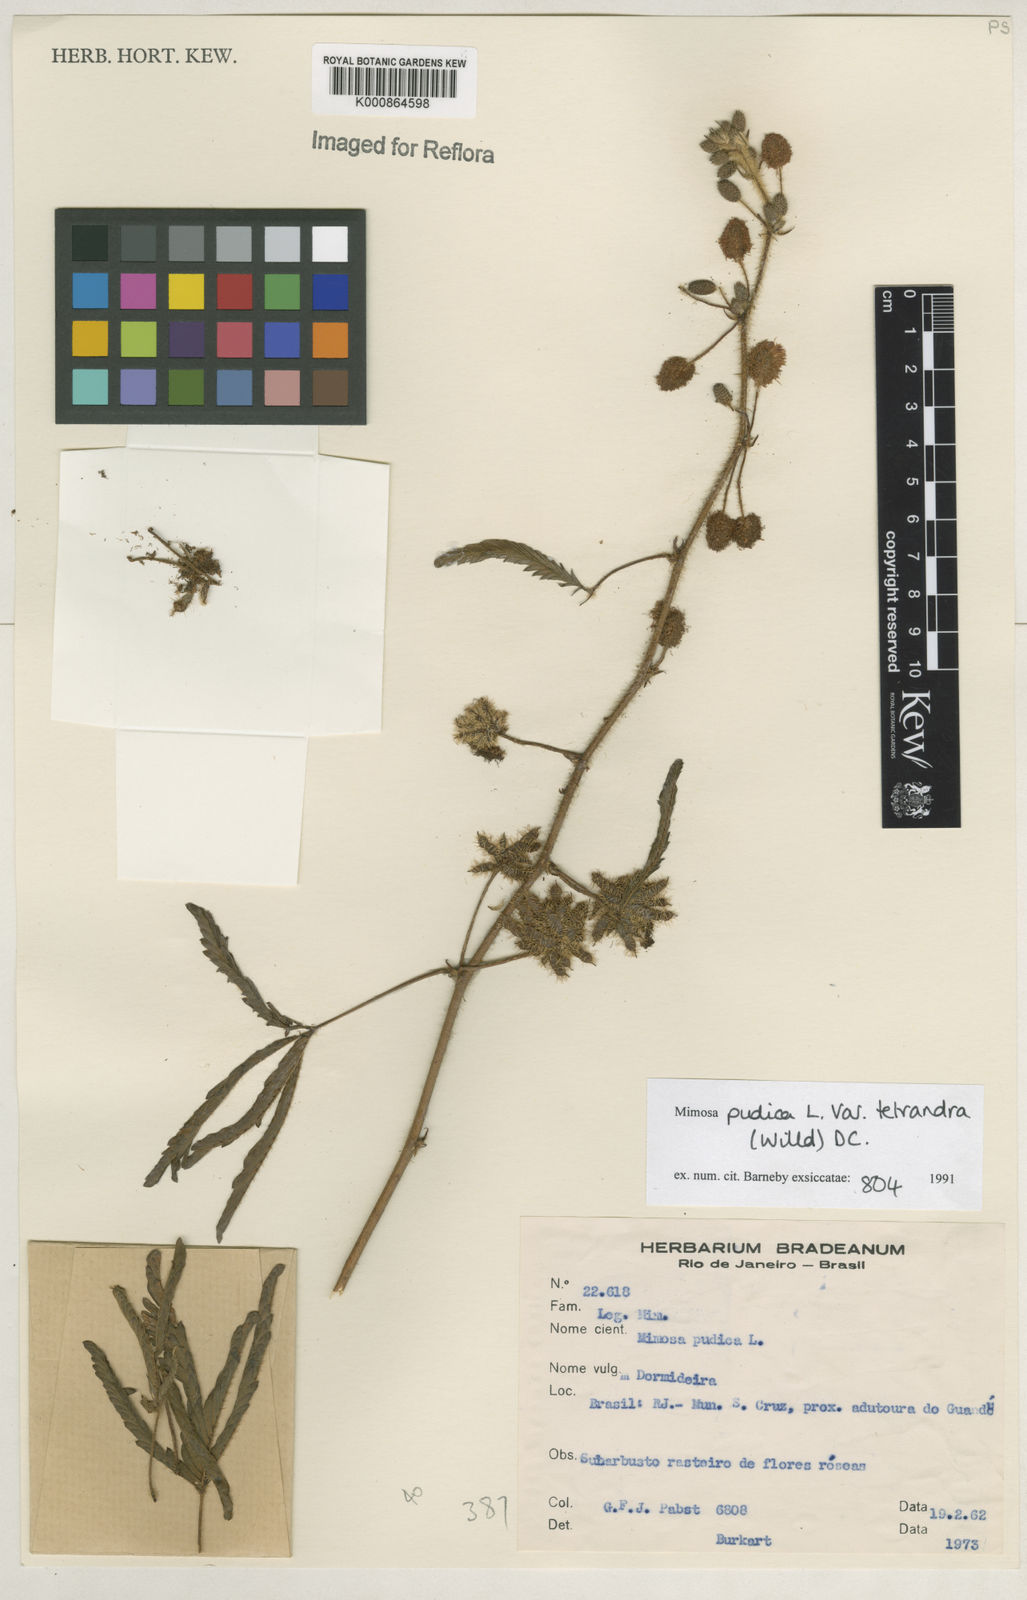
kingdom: Plantae
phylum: Tracheophyta
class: Magnoliopsida
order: Fabales
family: Fabaceae
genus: Mimosa
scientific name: Mimosa pudica
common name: Sensitive plant
